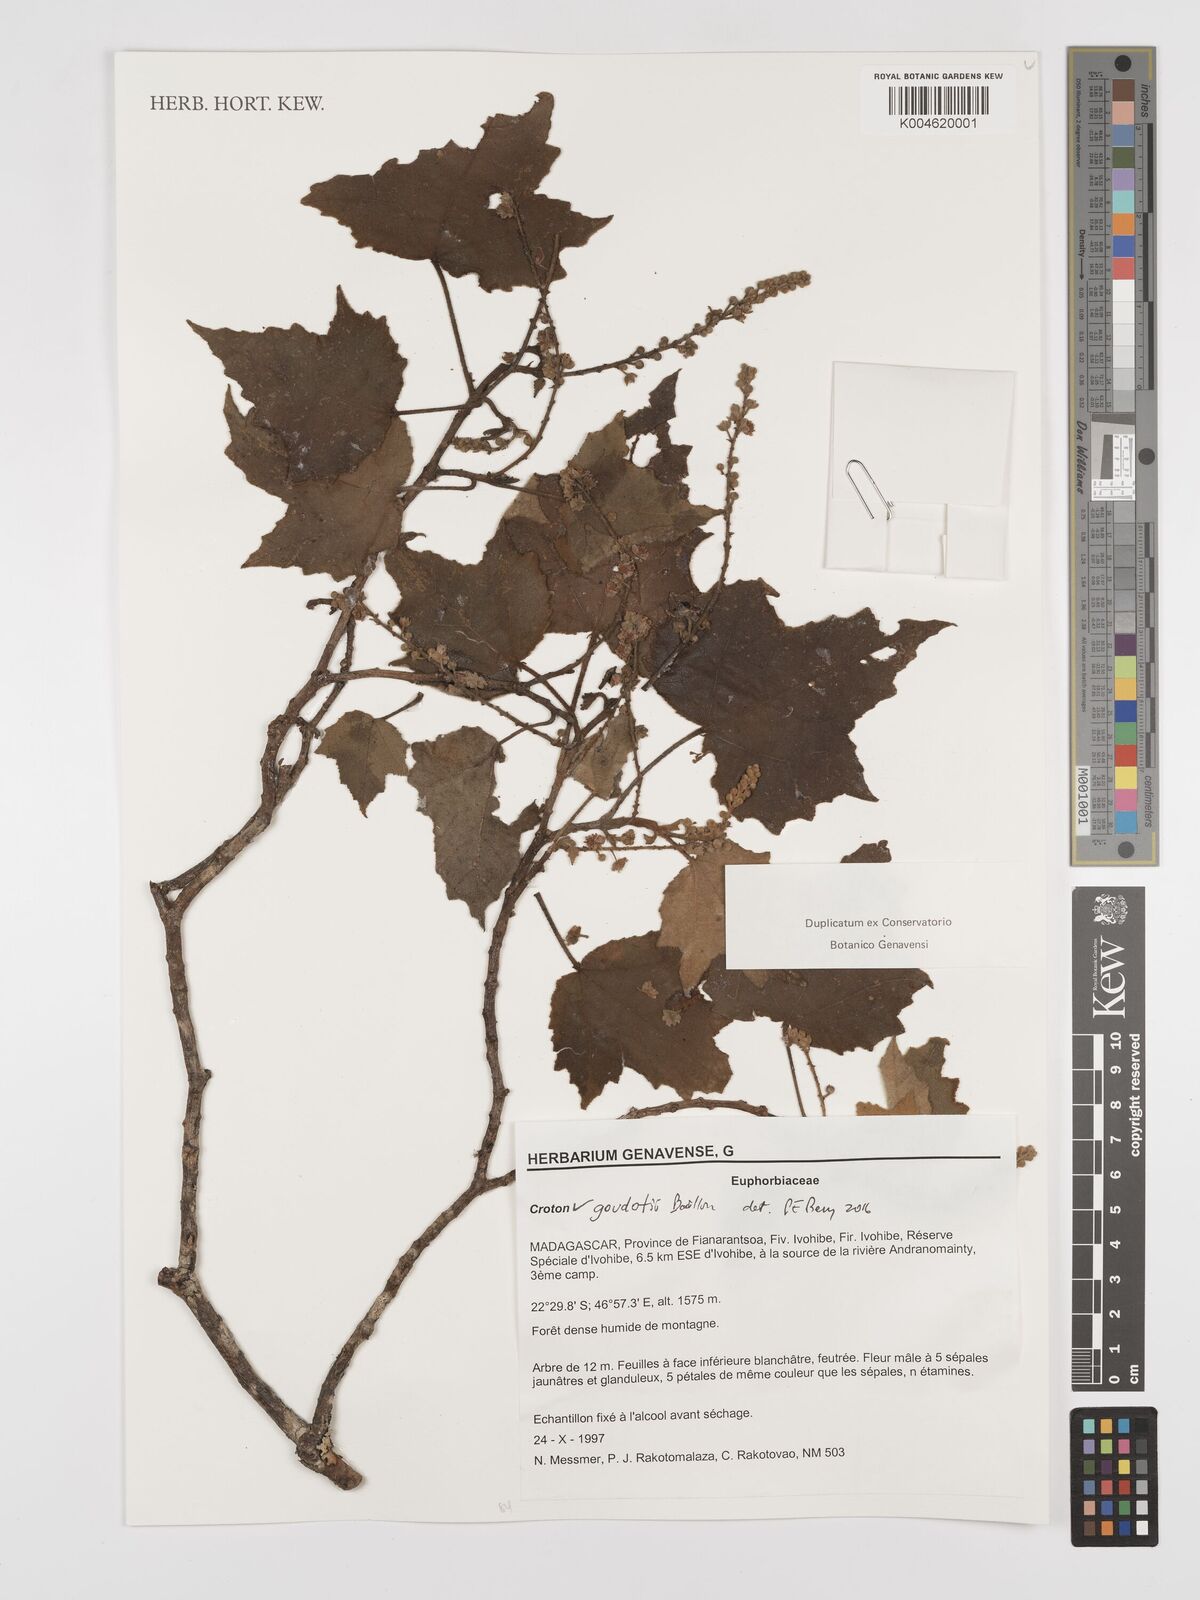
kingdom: Plantae
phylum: Tracheophyta
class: Magnoliopsida
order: Malpighiales
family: Euphorbiaceae
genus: Croton
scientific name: Croton goudotii
